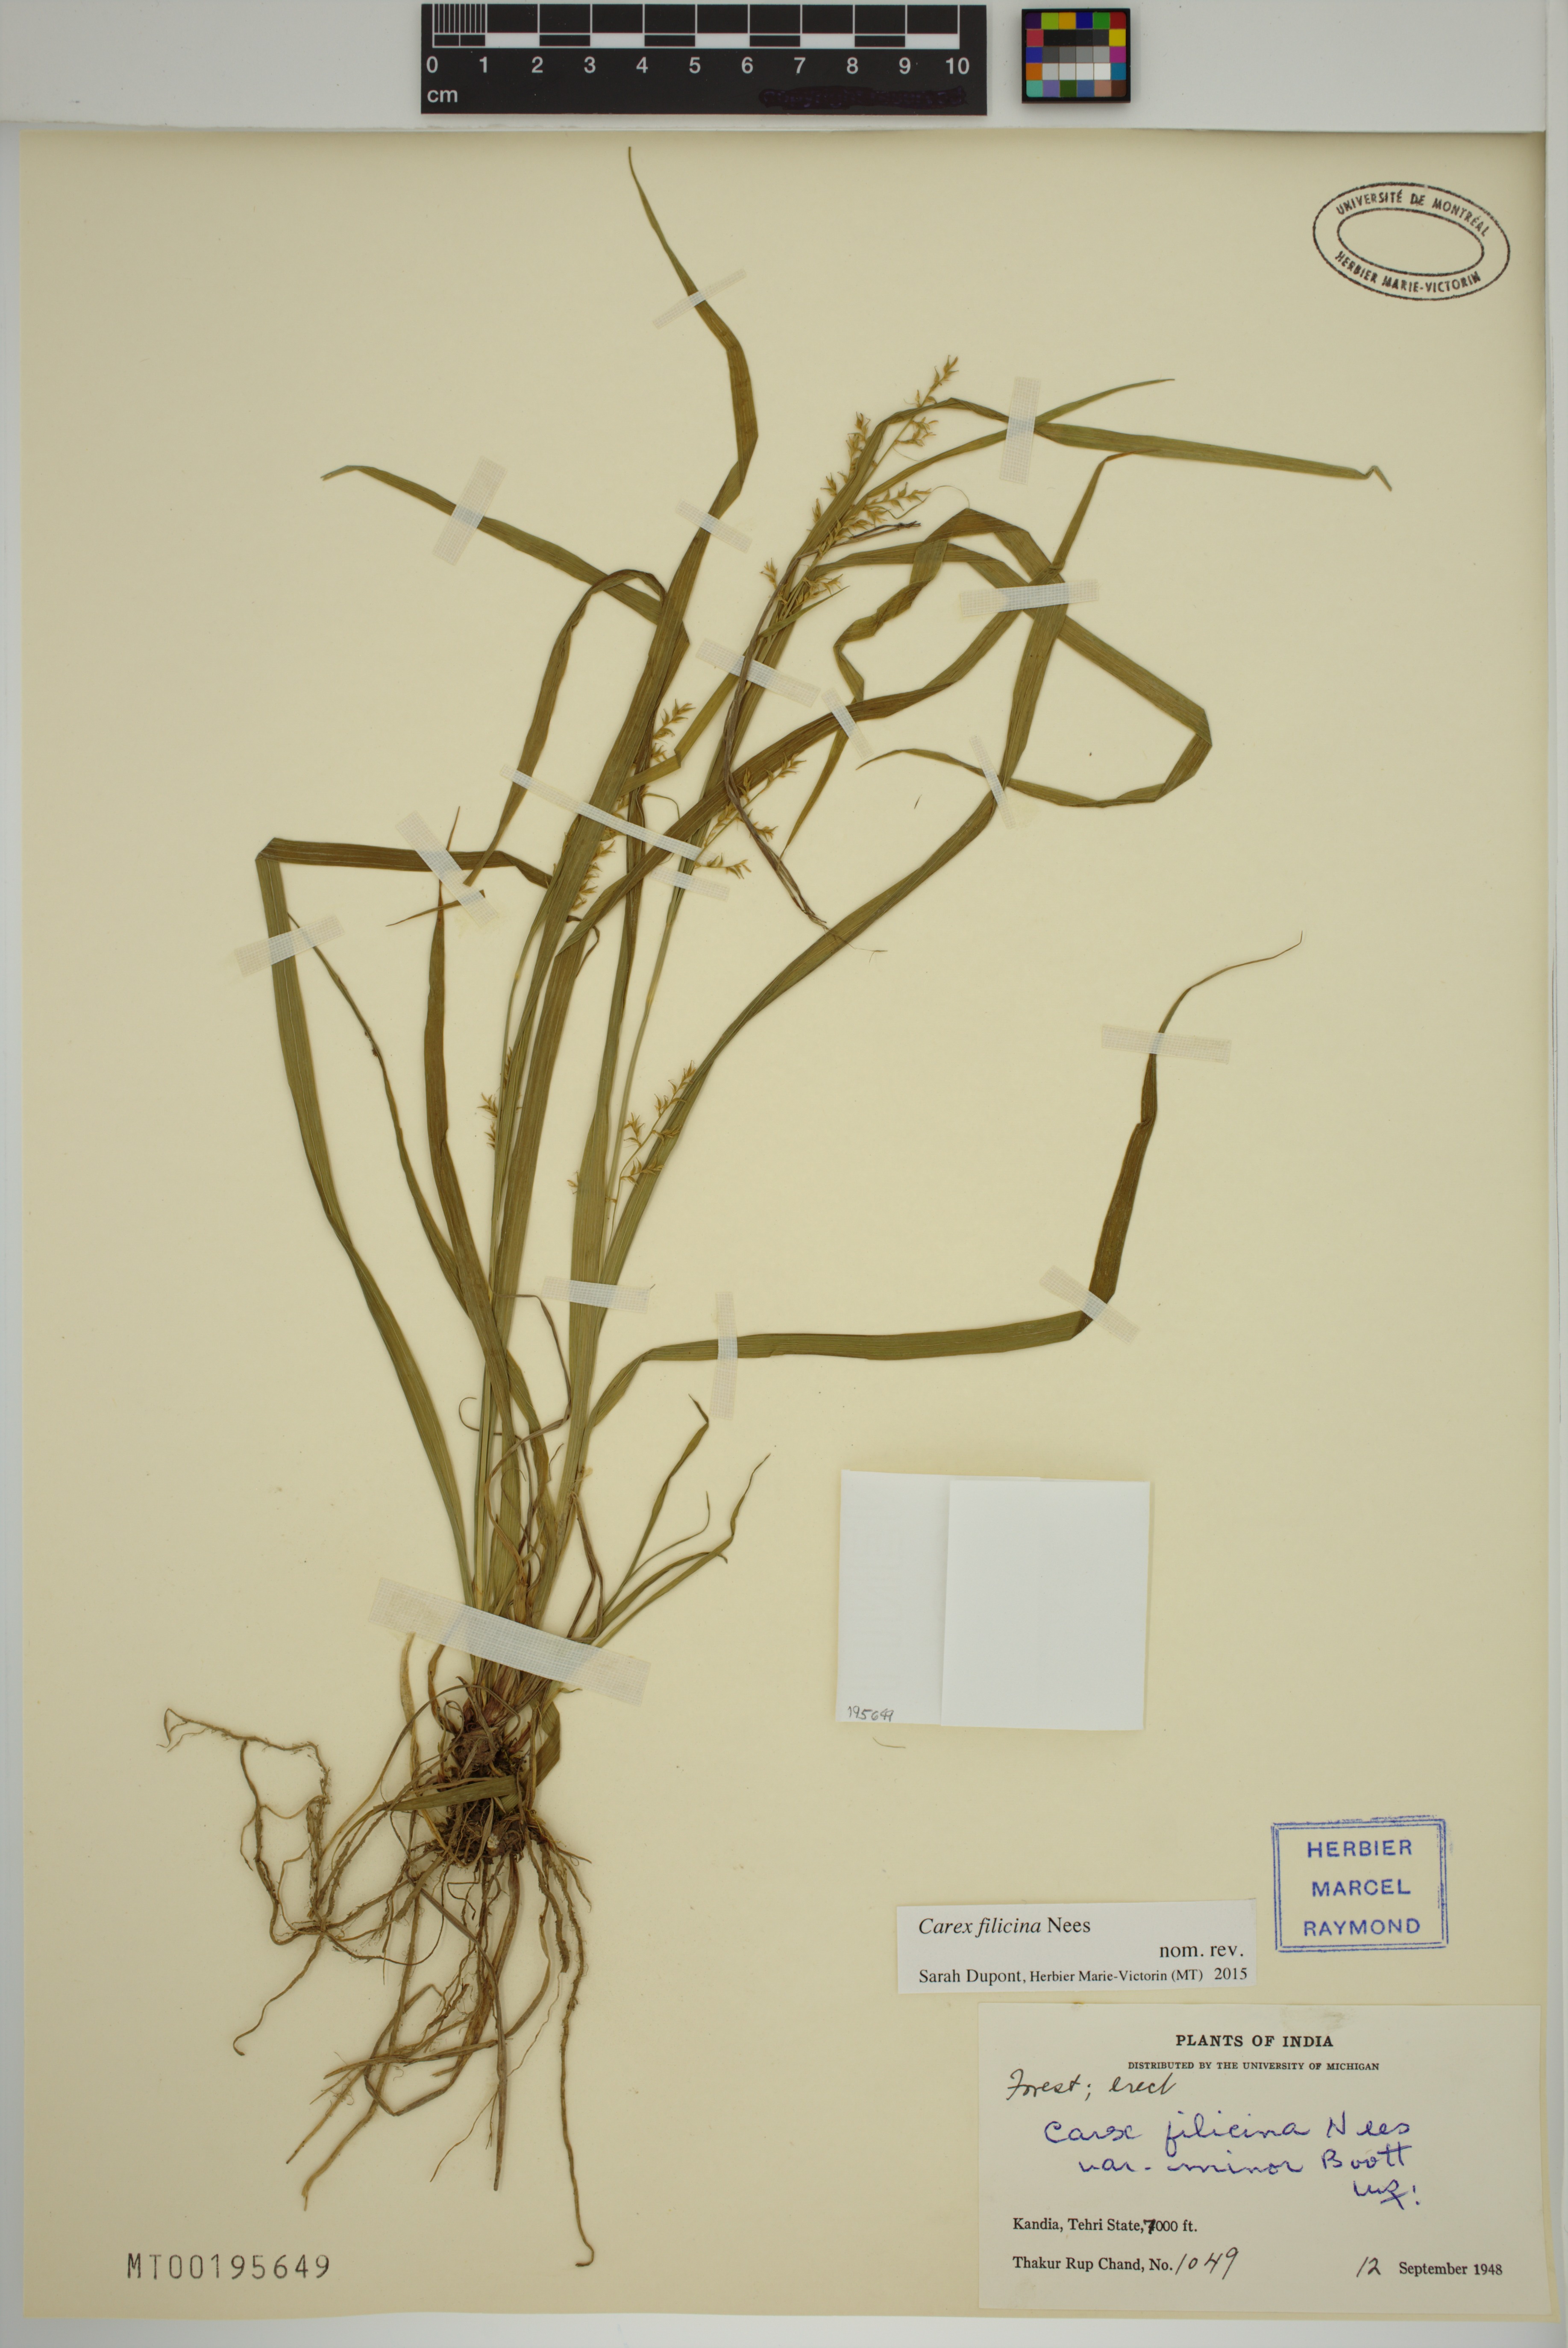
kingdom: Plantae
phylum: Tracheophyta
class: Liliopsida
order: Poales
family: Cyperaceae
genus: Carex
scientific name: Carex filicina
